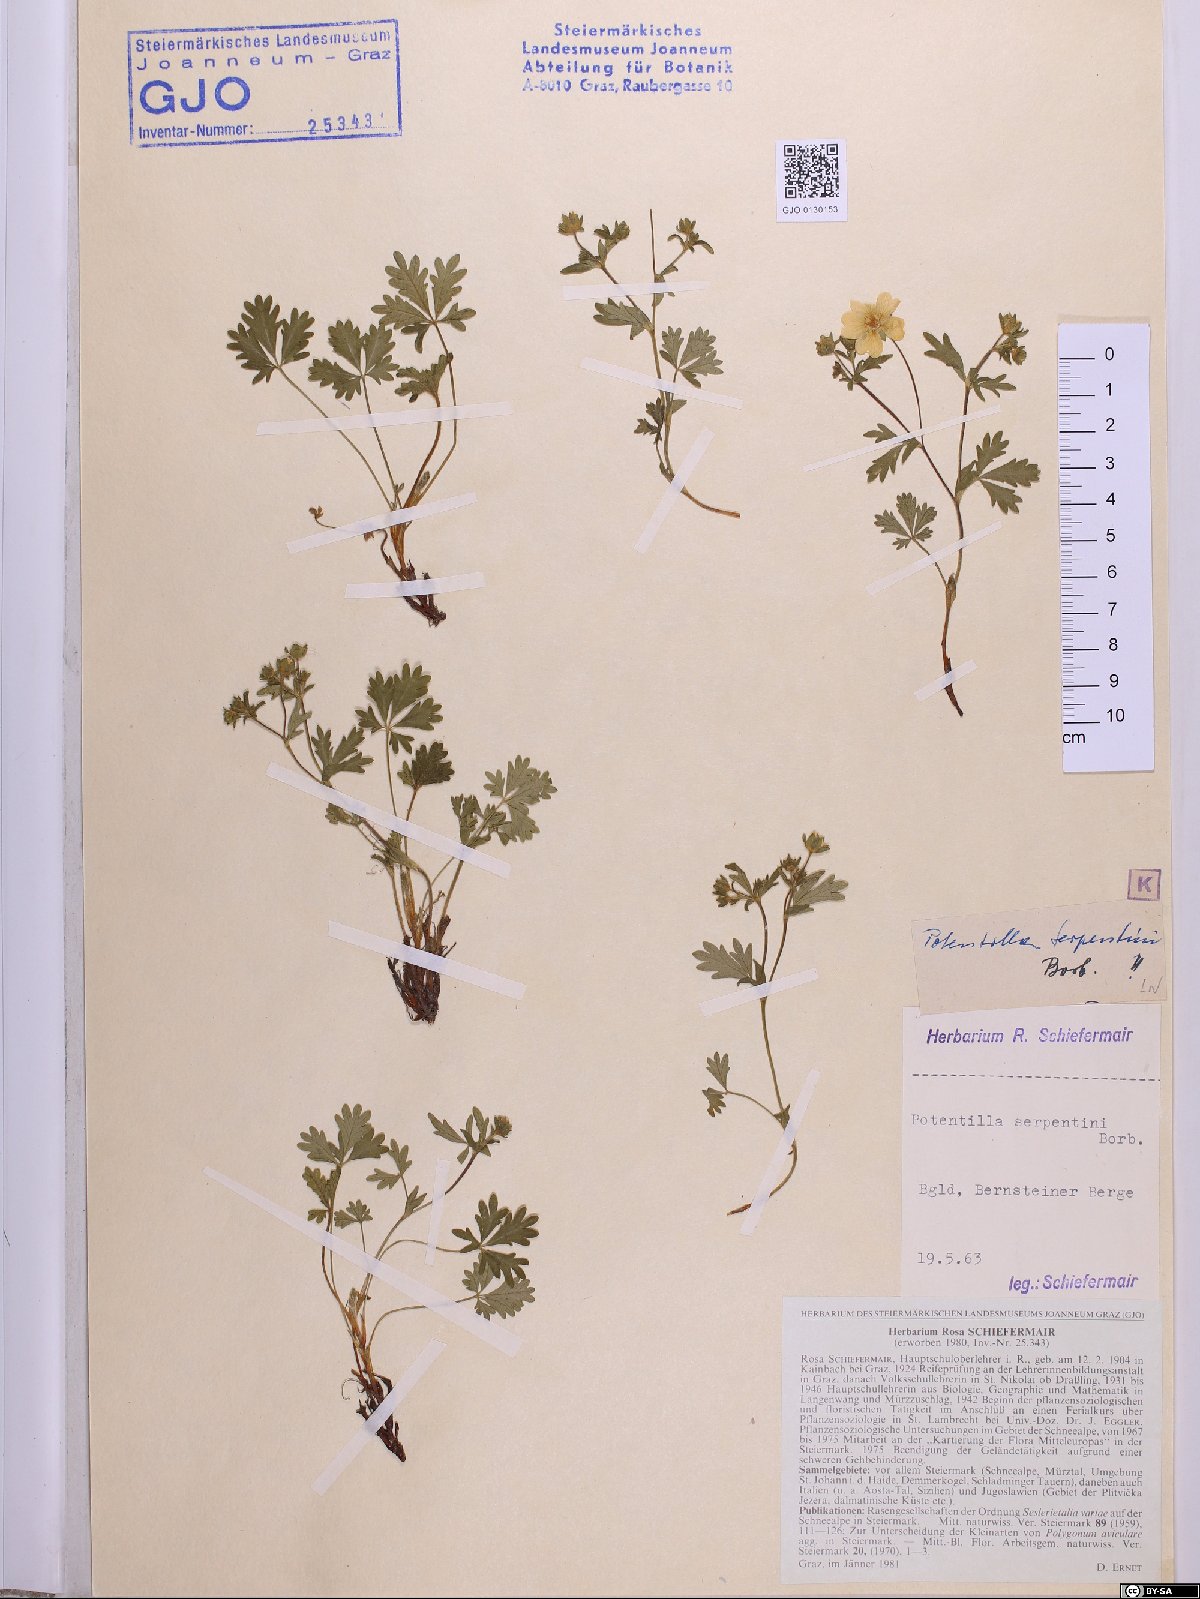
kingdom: Plantae
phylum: Tracheophyta
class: Magnoliopsida
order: Rosales
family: Rosaceae
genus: Potentilla
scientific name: Potentilla crantzii
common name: Alpine cinquefoil
